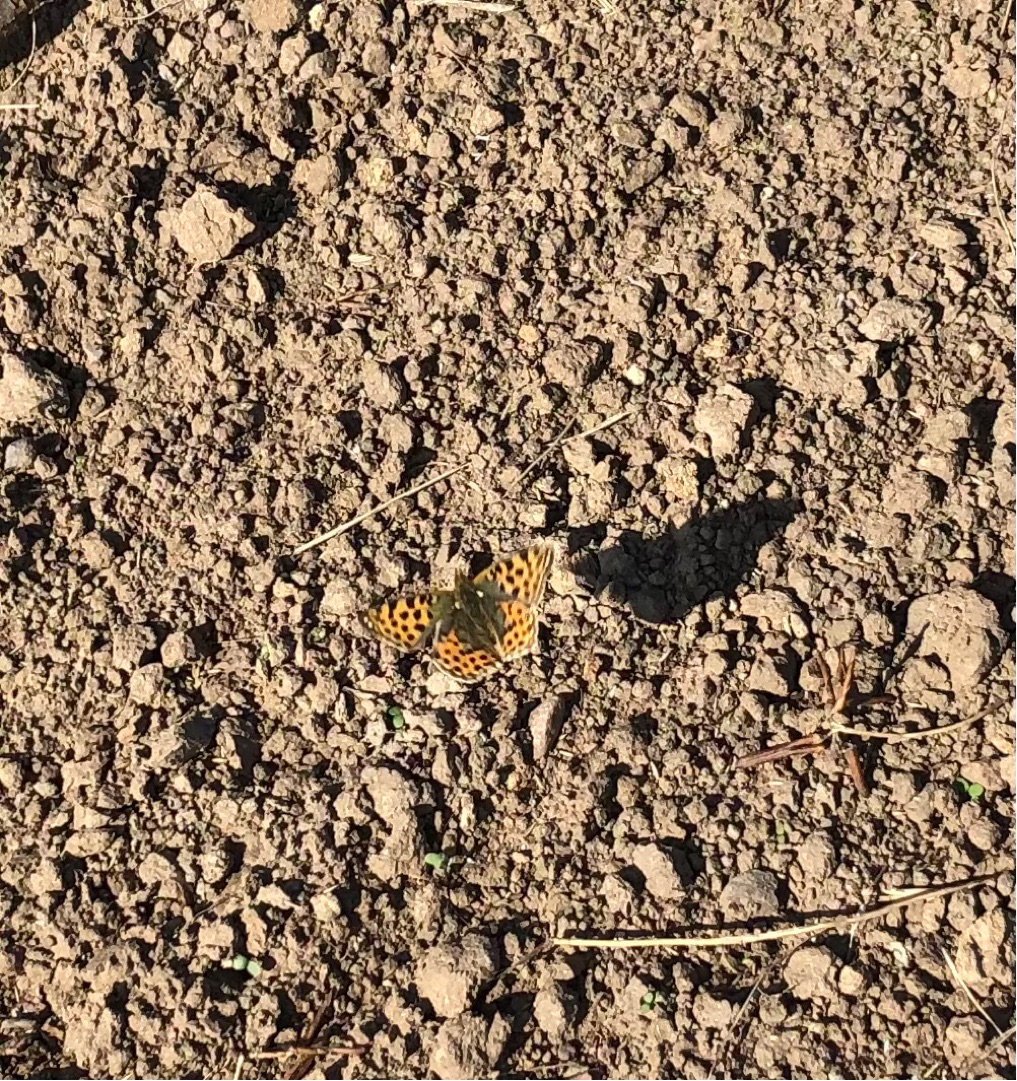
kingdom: Animalia
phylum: Arthropoda
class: Insecta
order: Lepidoptera
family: Nymphalidae
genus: Issoria
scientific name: Issoria lathonia
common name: Storplettet perlemorsommerfugl
